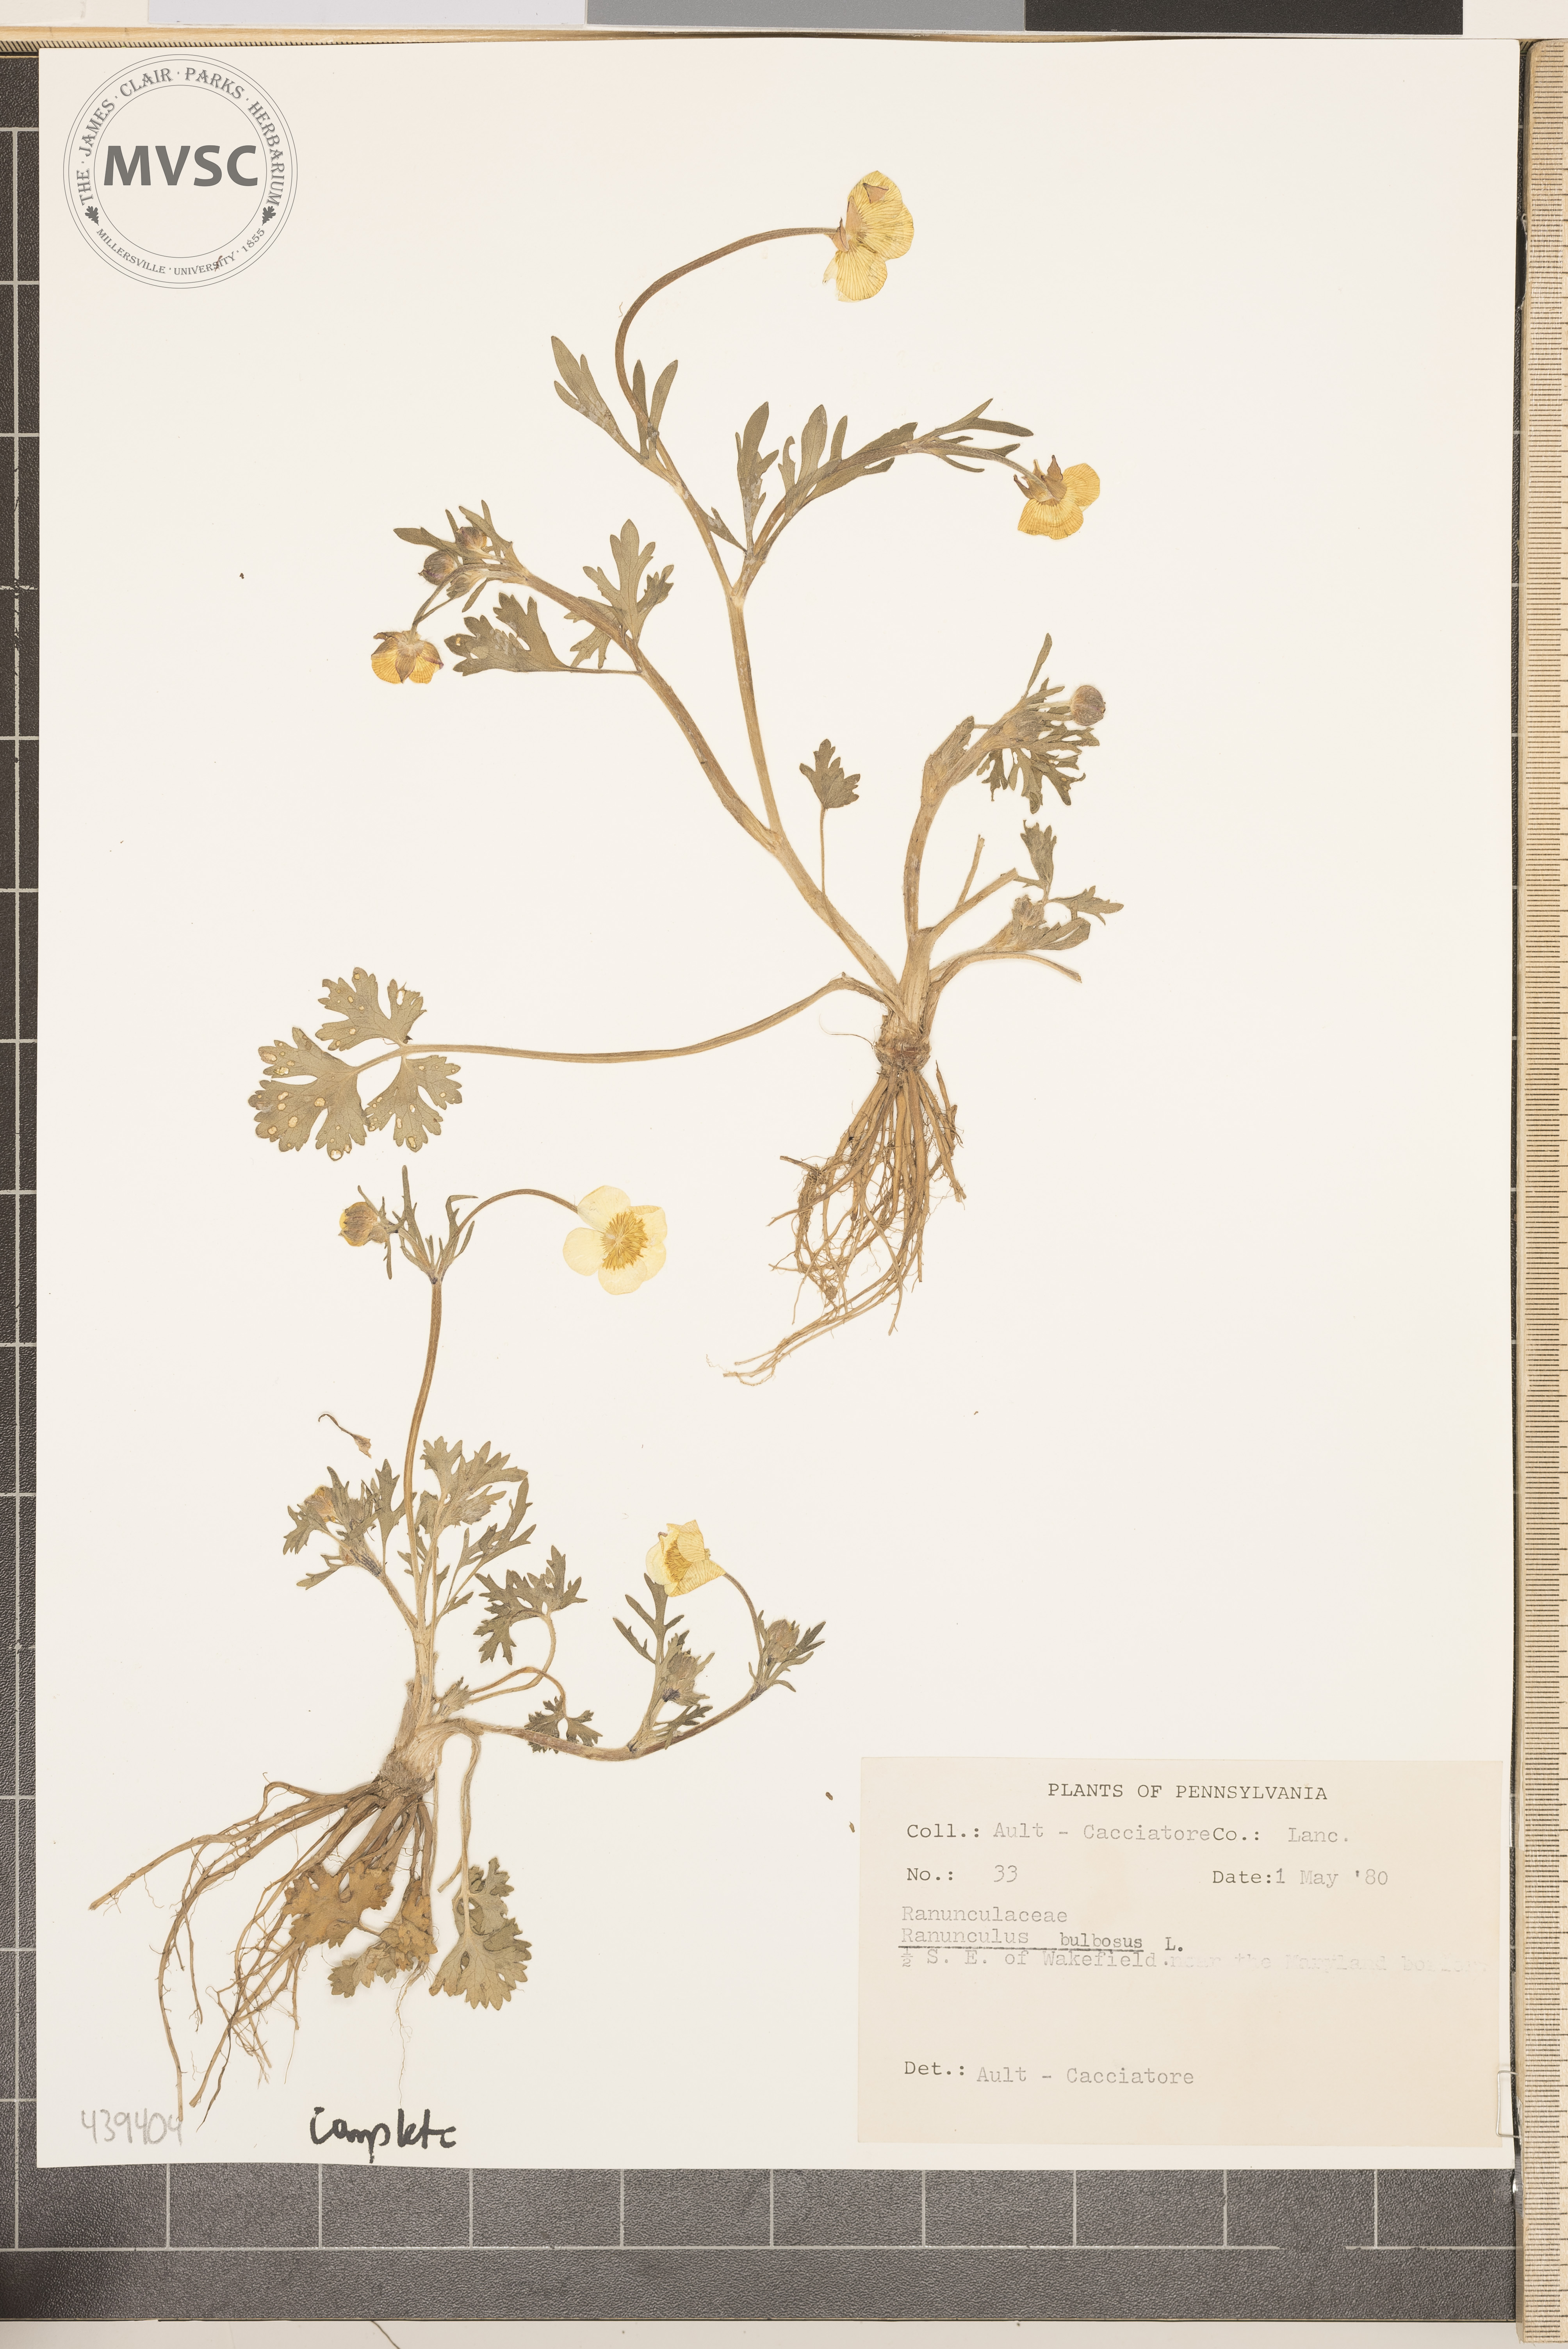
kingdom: Plantae
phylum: Tracheophyta
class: Magnoliopsida
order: Ranunculales
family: Ranunculaceae
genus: Ranunculus
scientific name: Ranunculus bulbosus
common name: Bulbous buttercup
